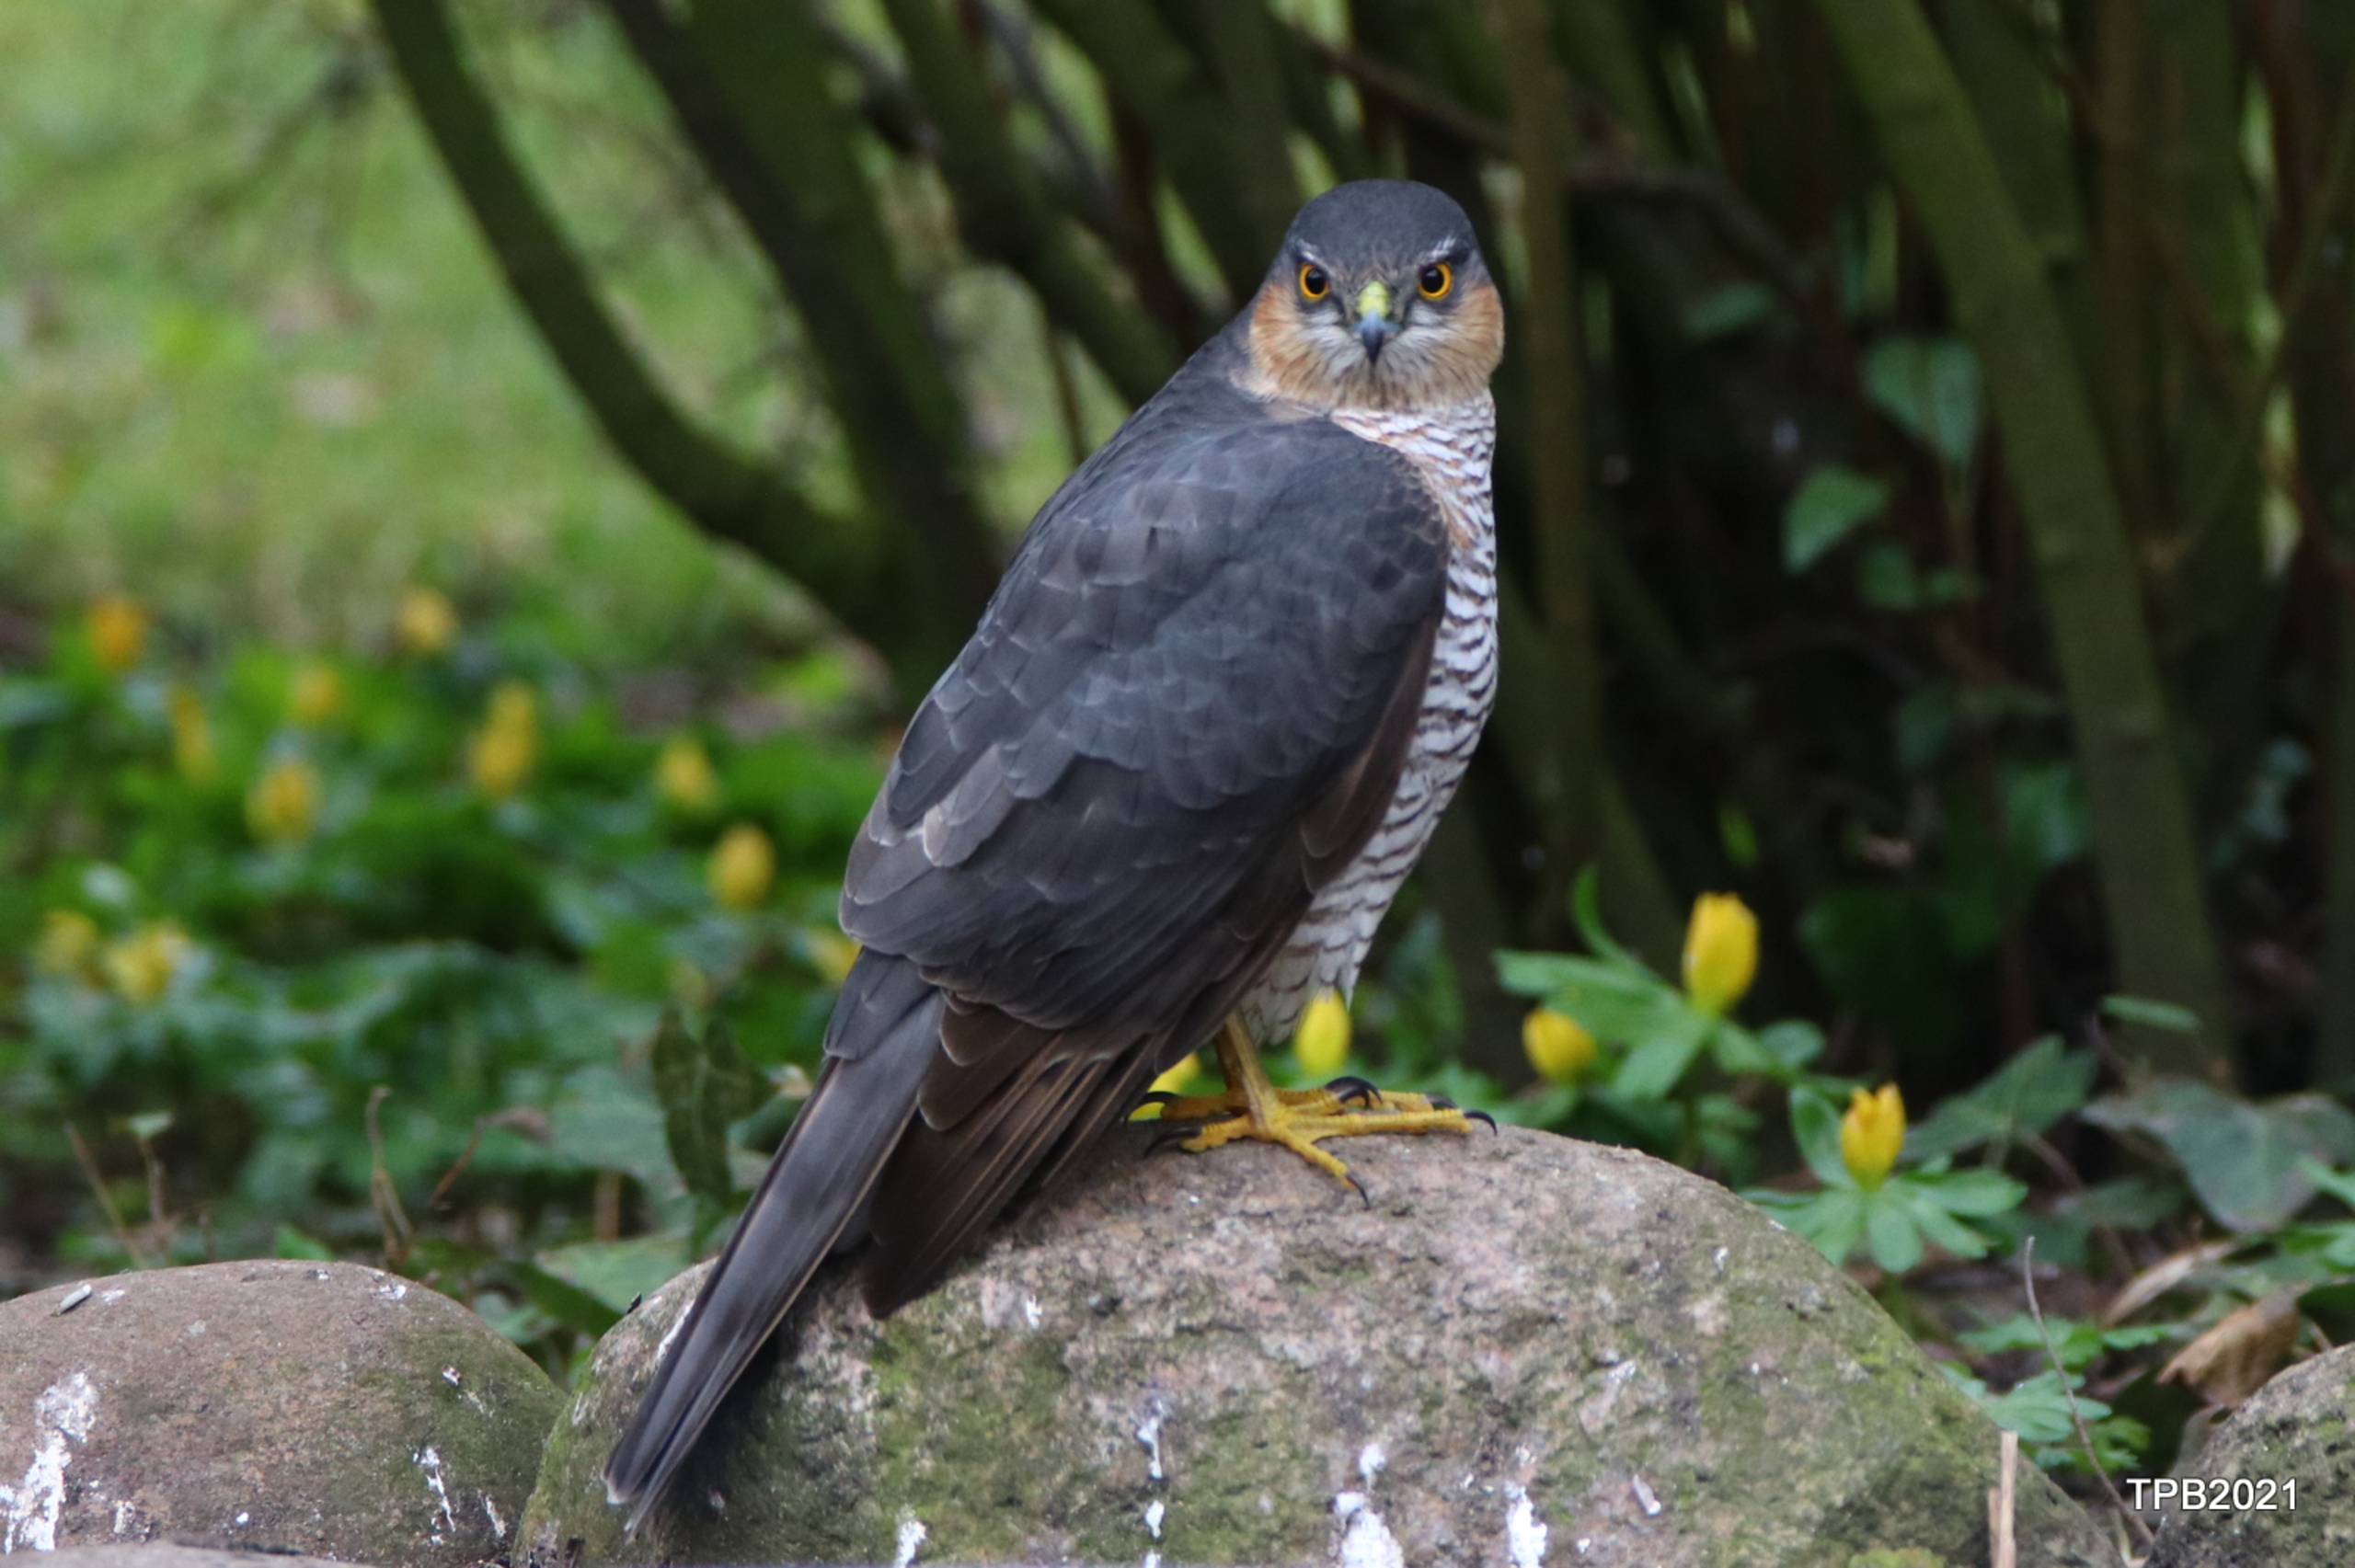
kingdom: Animalia
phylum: Chordata
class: Aves
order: Accipitriformes
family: Accipitridae
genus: Accipiter
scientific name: Accipiter nisus
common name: Spurvehøg
